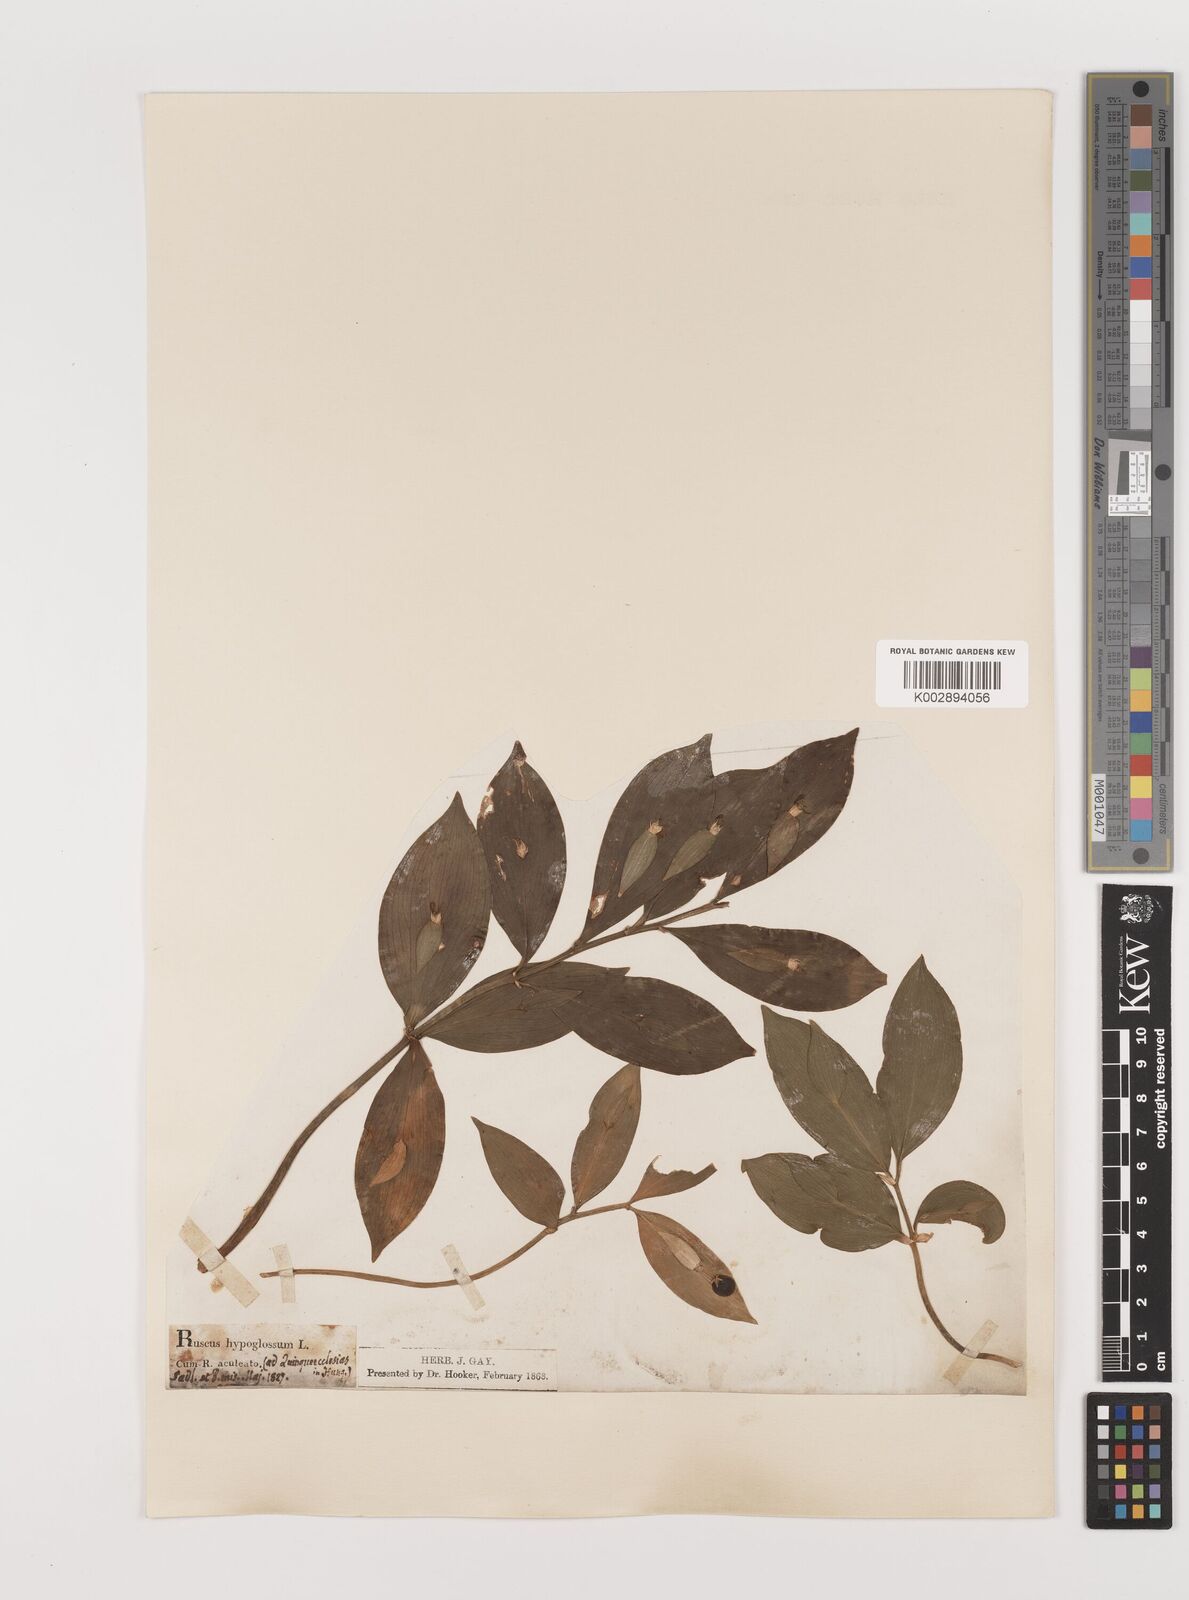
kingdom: Plantae
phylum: Tracheophyta
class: Liliopsida
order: Asparagales
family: Asparagaceae
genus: Ruscus
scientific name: Ruscus hypoglossum
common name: Spineless butcher's-broom
